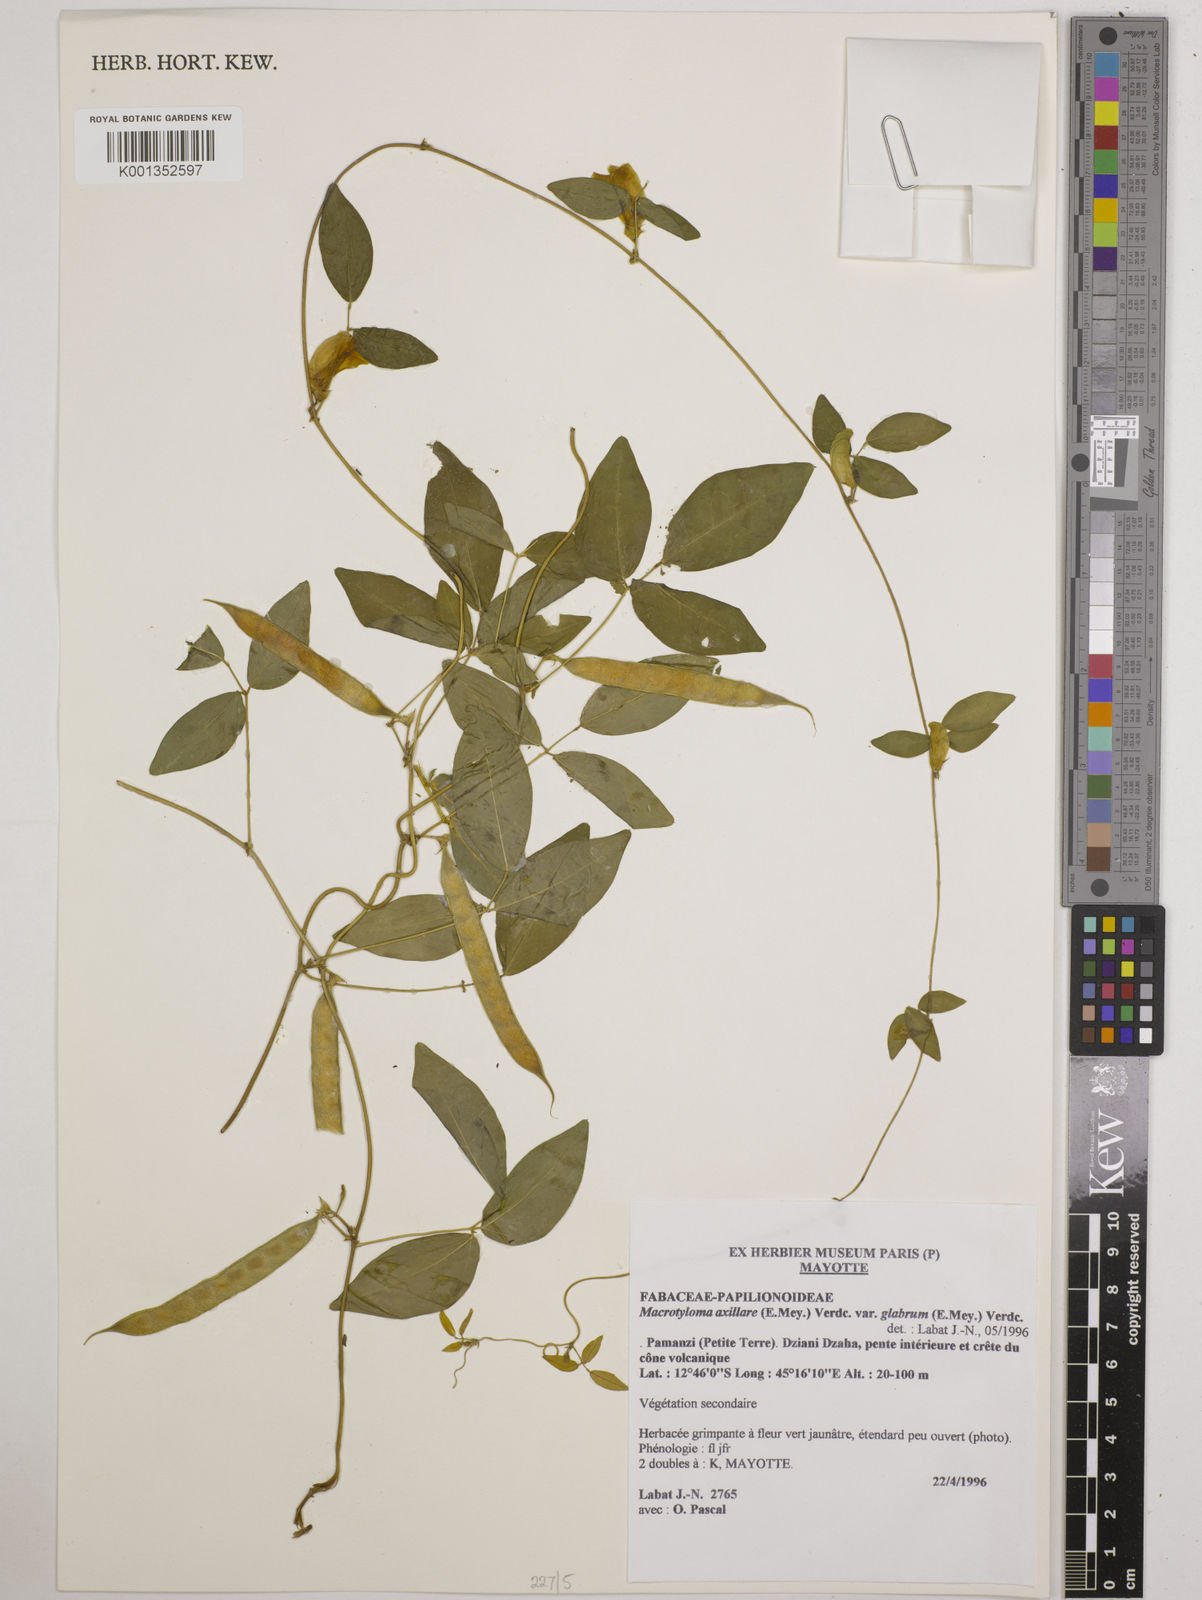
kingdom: Plantae
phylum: Tracheophyta
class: Magnoliopsida
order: Fabales
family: Fabaceae
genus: Macrotyloma
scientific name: Macrotyloma
